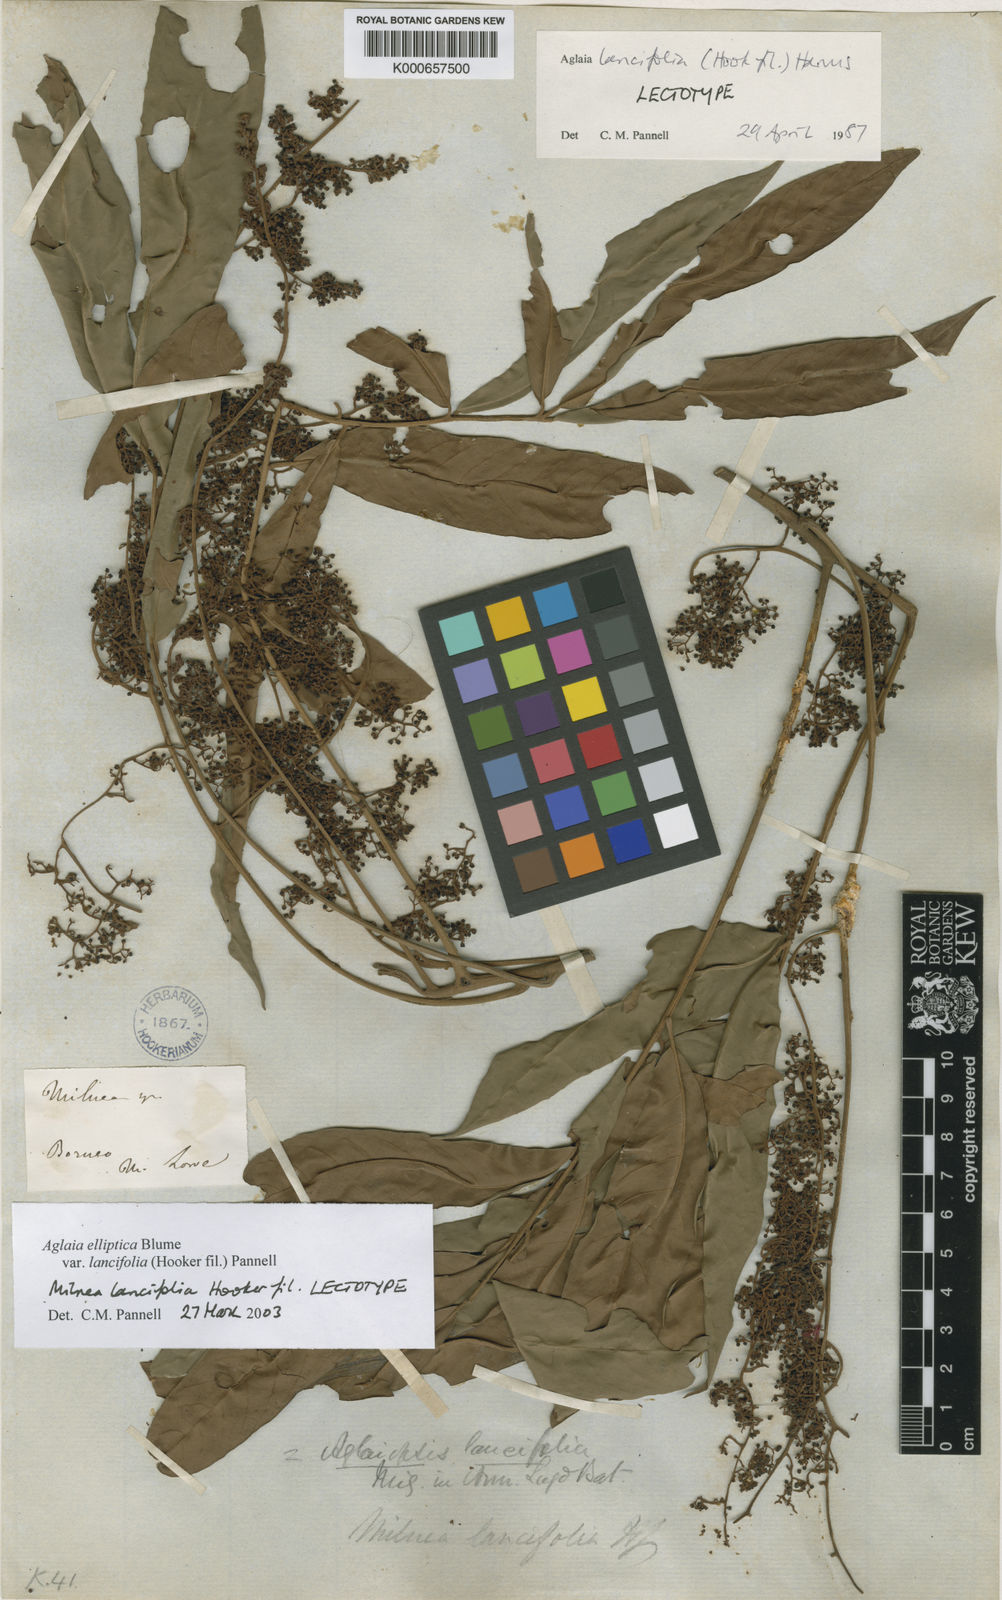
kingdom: Plantae
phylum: Tracheophyta
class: Magnoliopsida
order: Sapindales
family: Meliaceae
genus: Aglaia
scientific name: Aglaia elliptica
